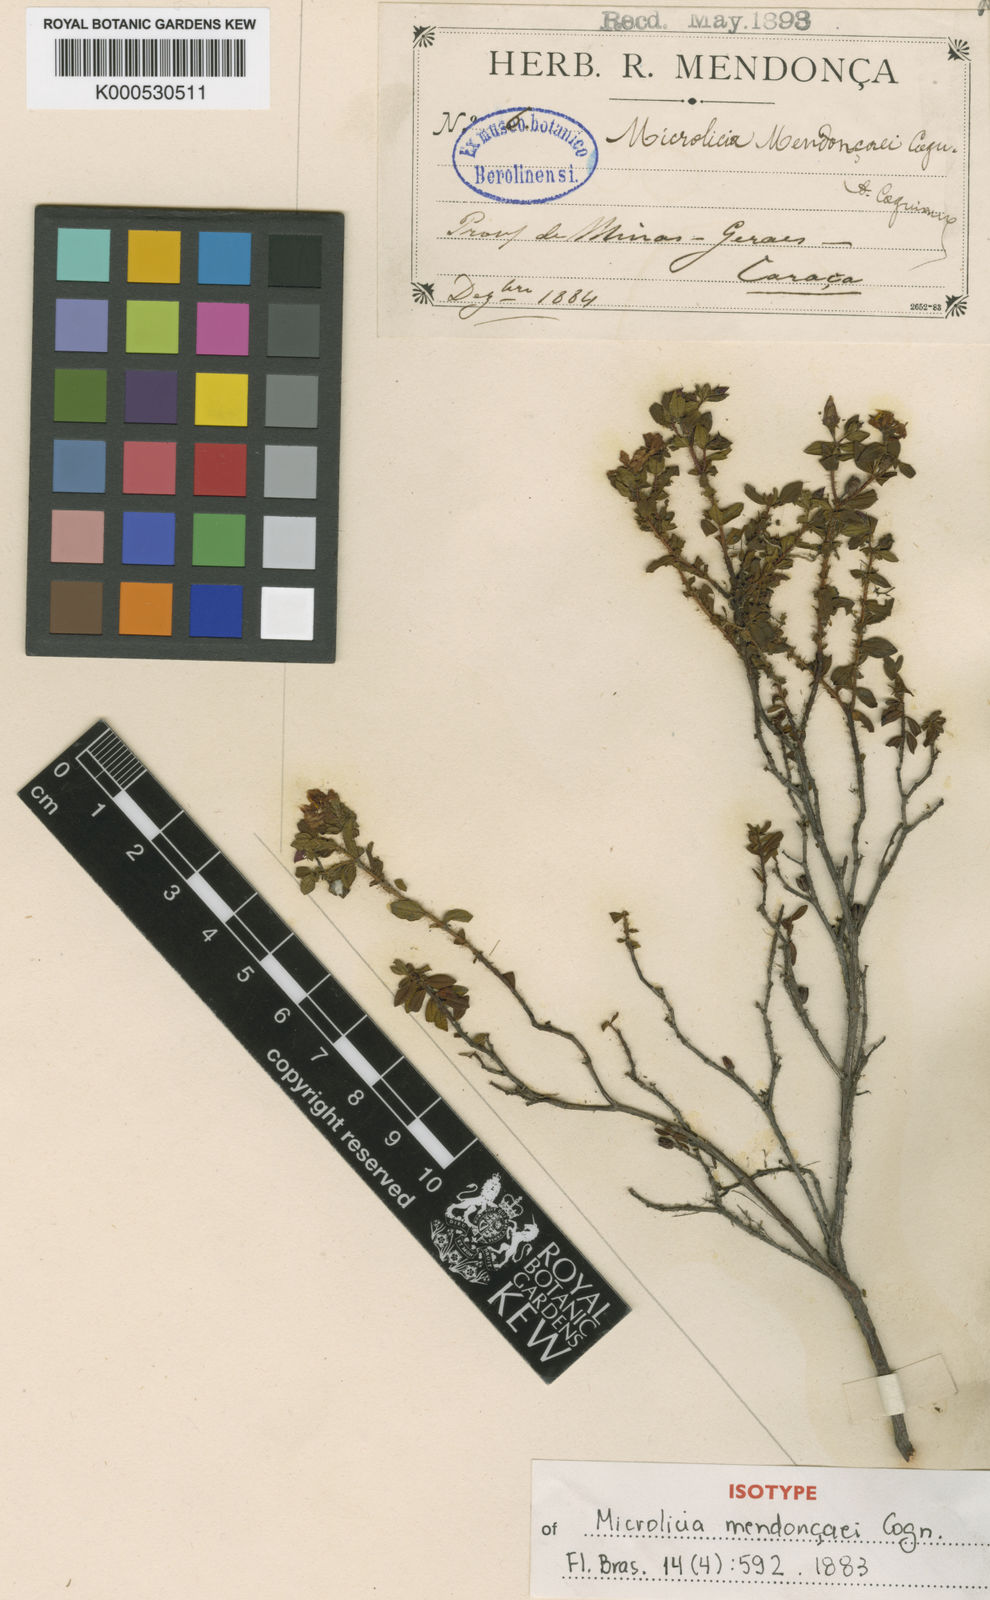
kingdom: Plantae
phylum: Tracheophyta
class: Magnoliopsida
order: Myrtales
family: Melastomataceae
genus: Microlicia
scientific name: Microlicia glazioviana
